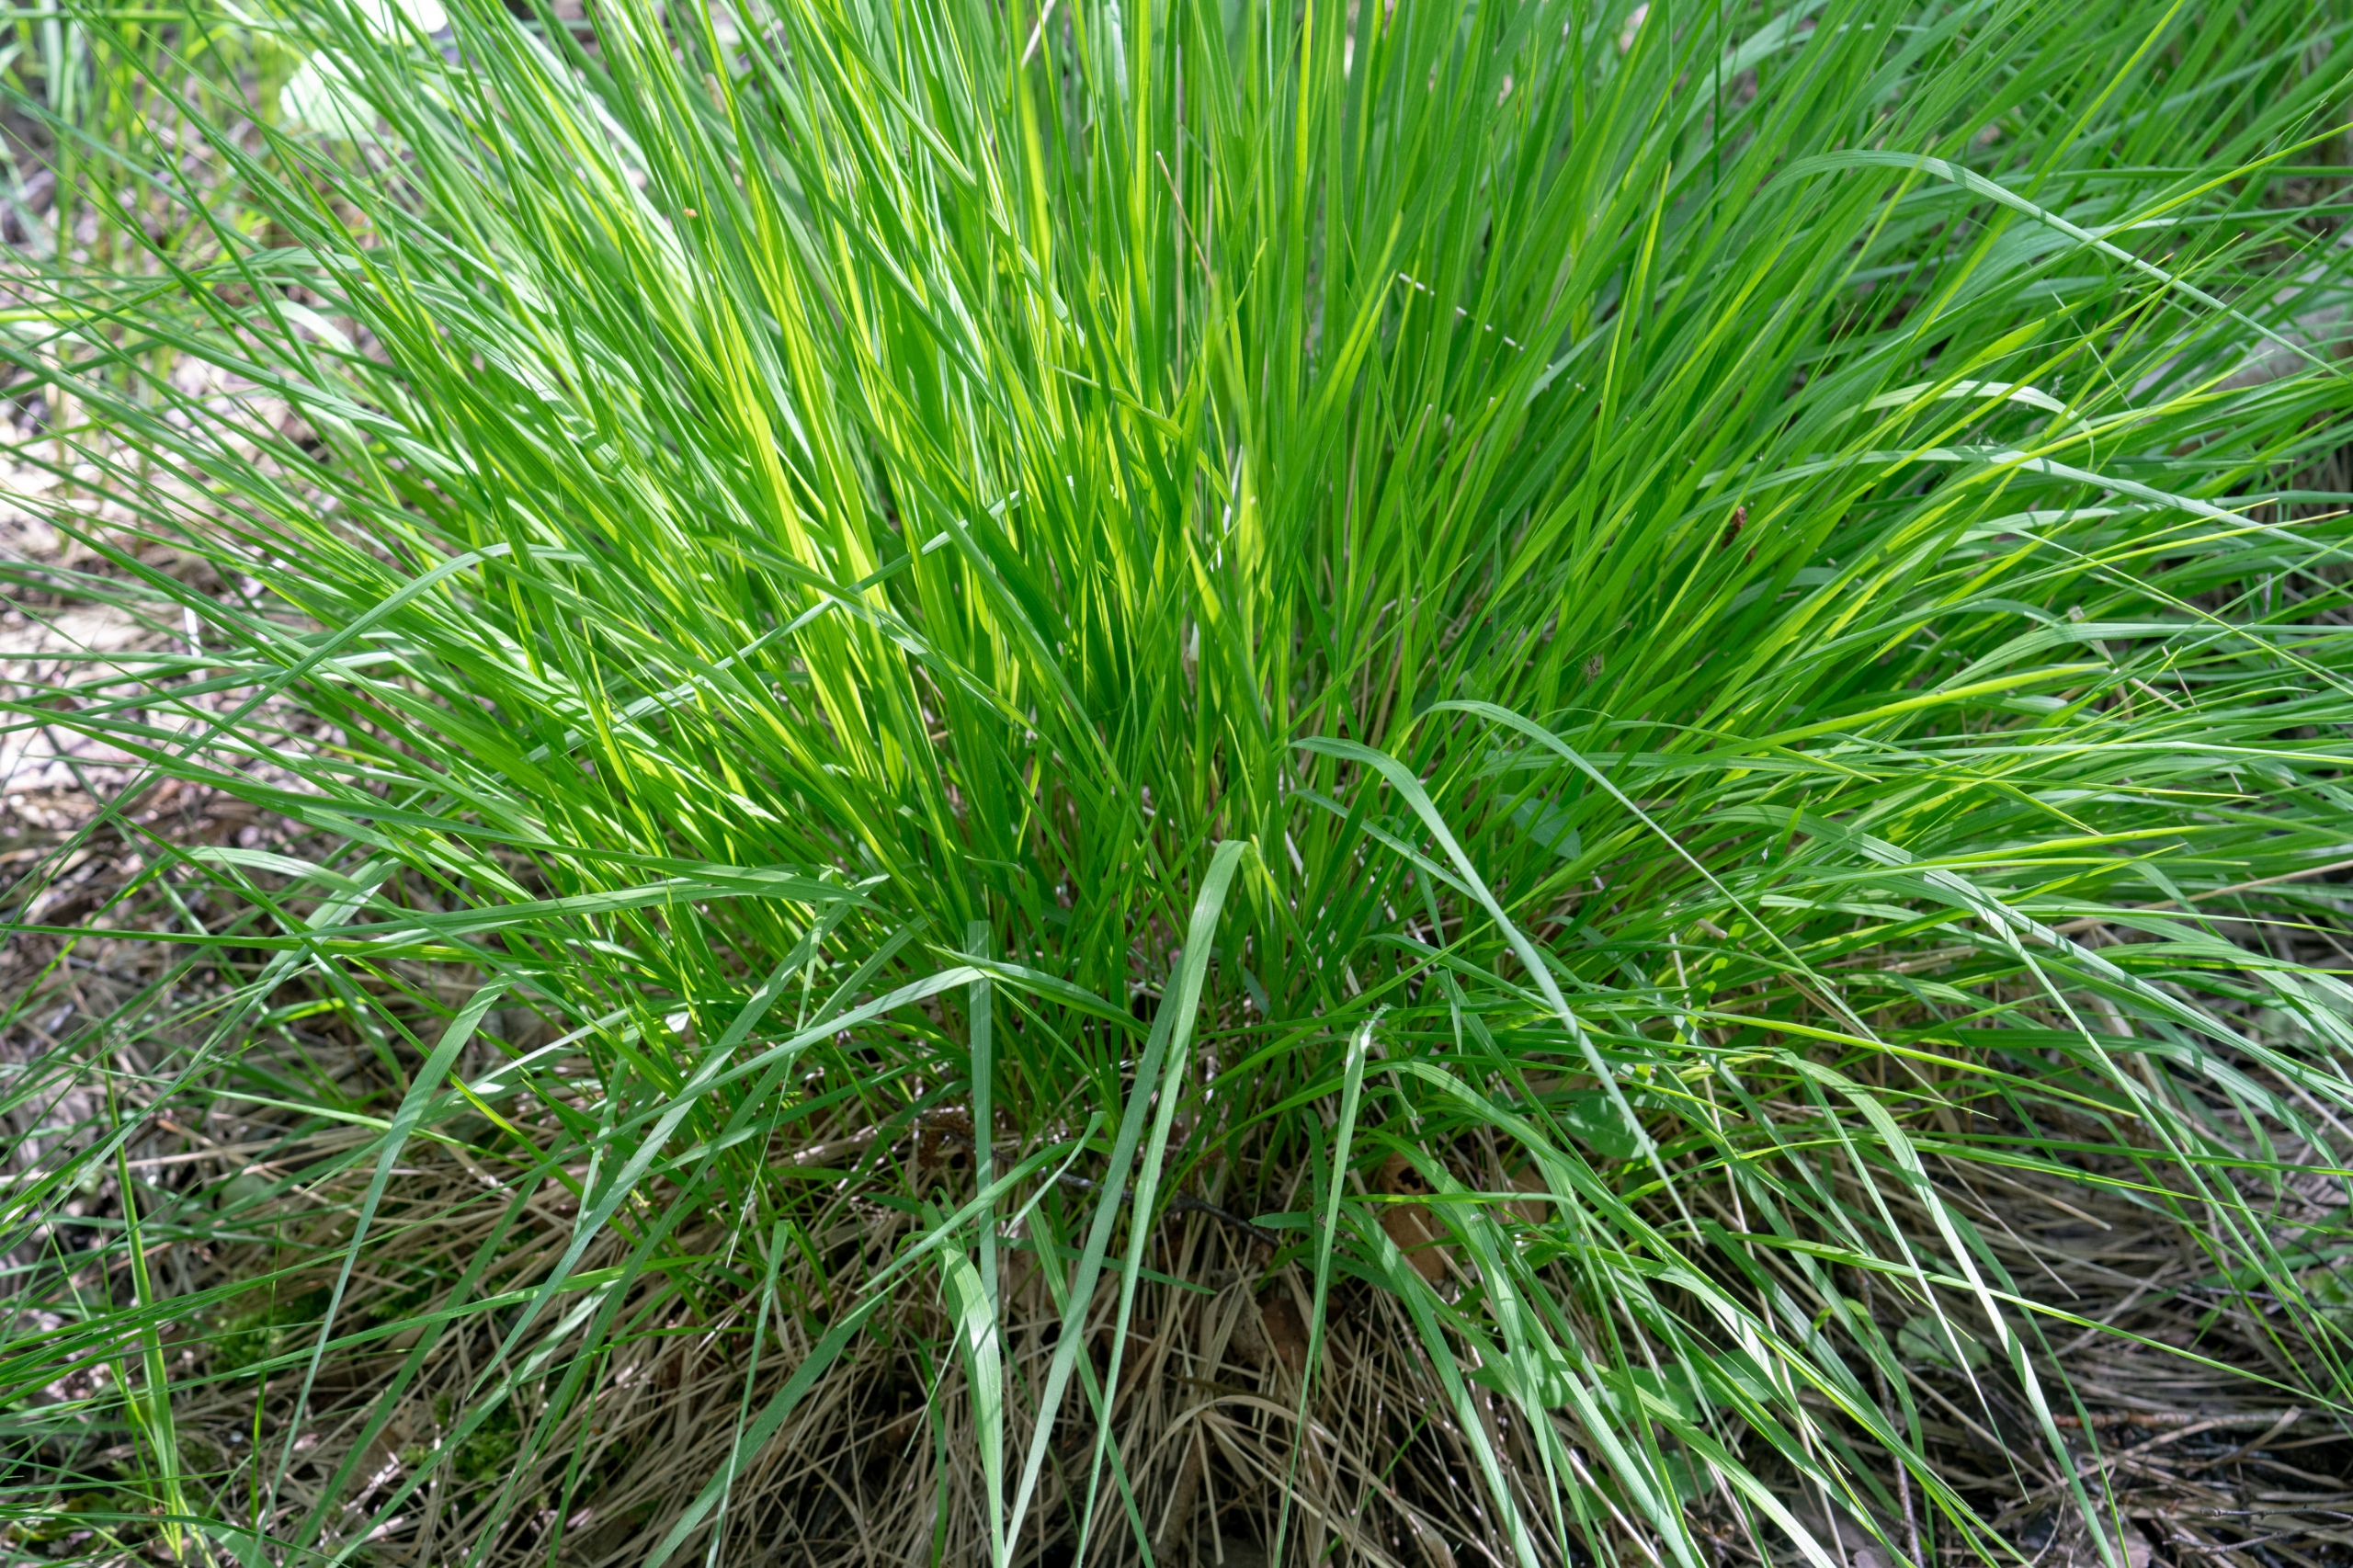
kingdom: Plantae
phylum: Tracheophyta
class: Liliopsida
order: Poales
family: Poaceae
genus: Molinia
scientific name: Molinia caerulea
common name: Blåtop
